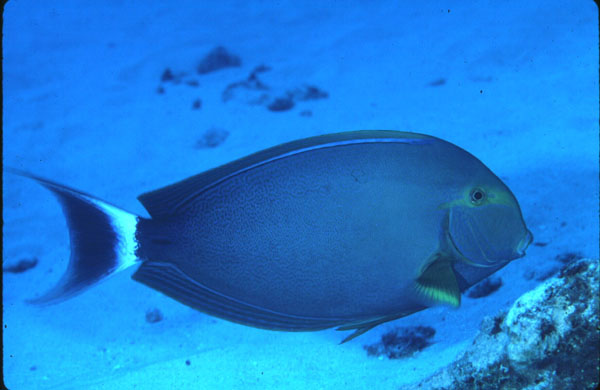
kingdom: Animalia
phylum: Chordata
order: Perciformes
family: Acanthuridae
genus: Acanthurus
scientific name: Acanthurus xanthopterus
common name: Cuvier's surgeonfish
